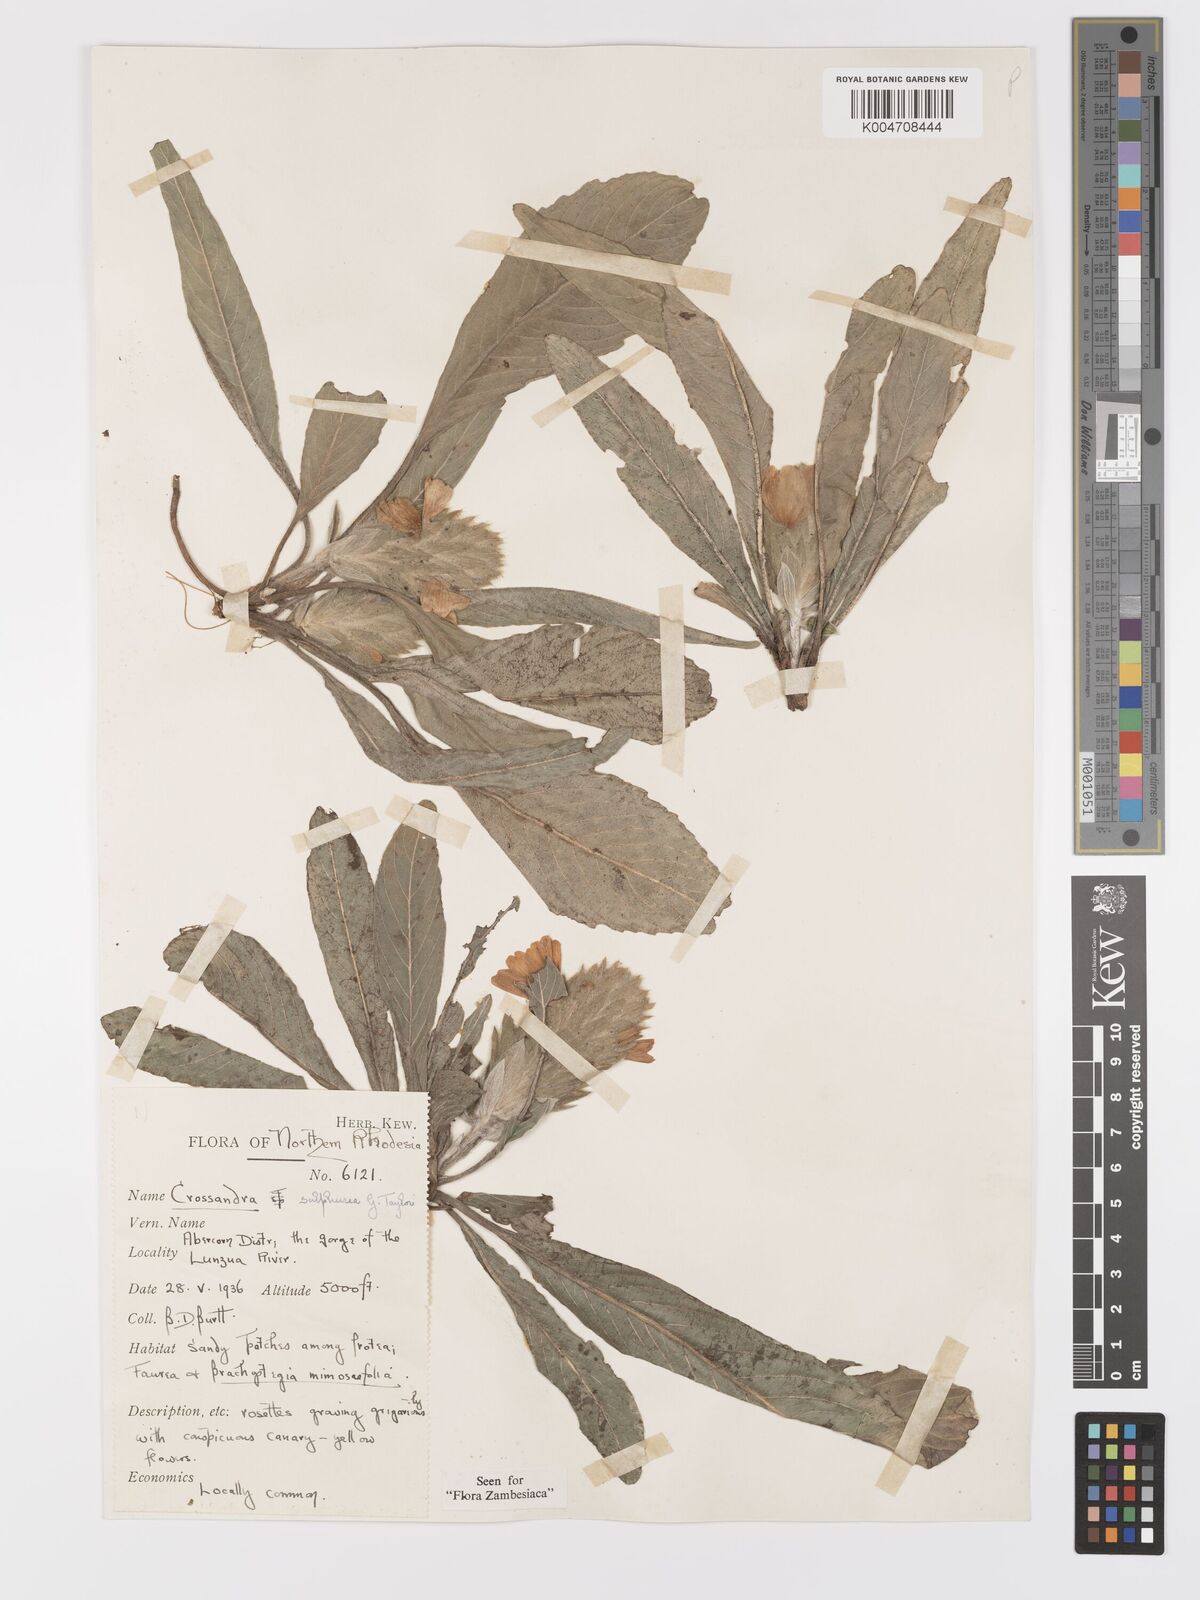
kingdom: Plantae
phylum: Tracheophyta
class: Magnoliopsida
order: Lamiales
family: Acanthaceae
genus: Crossandra
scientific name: Crossandra sulphurea
